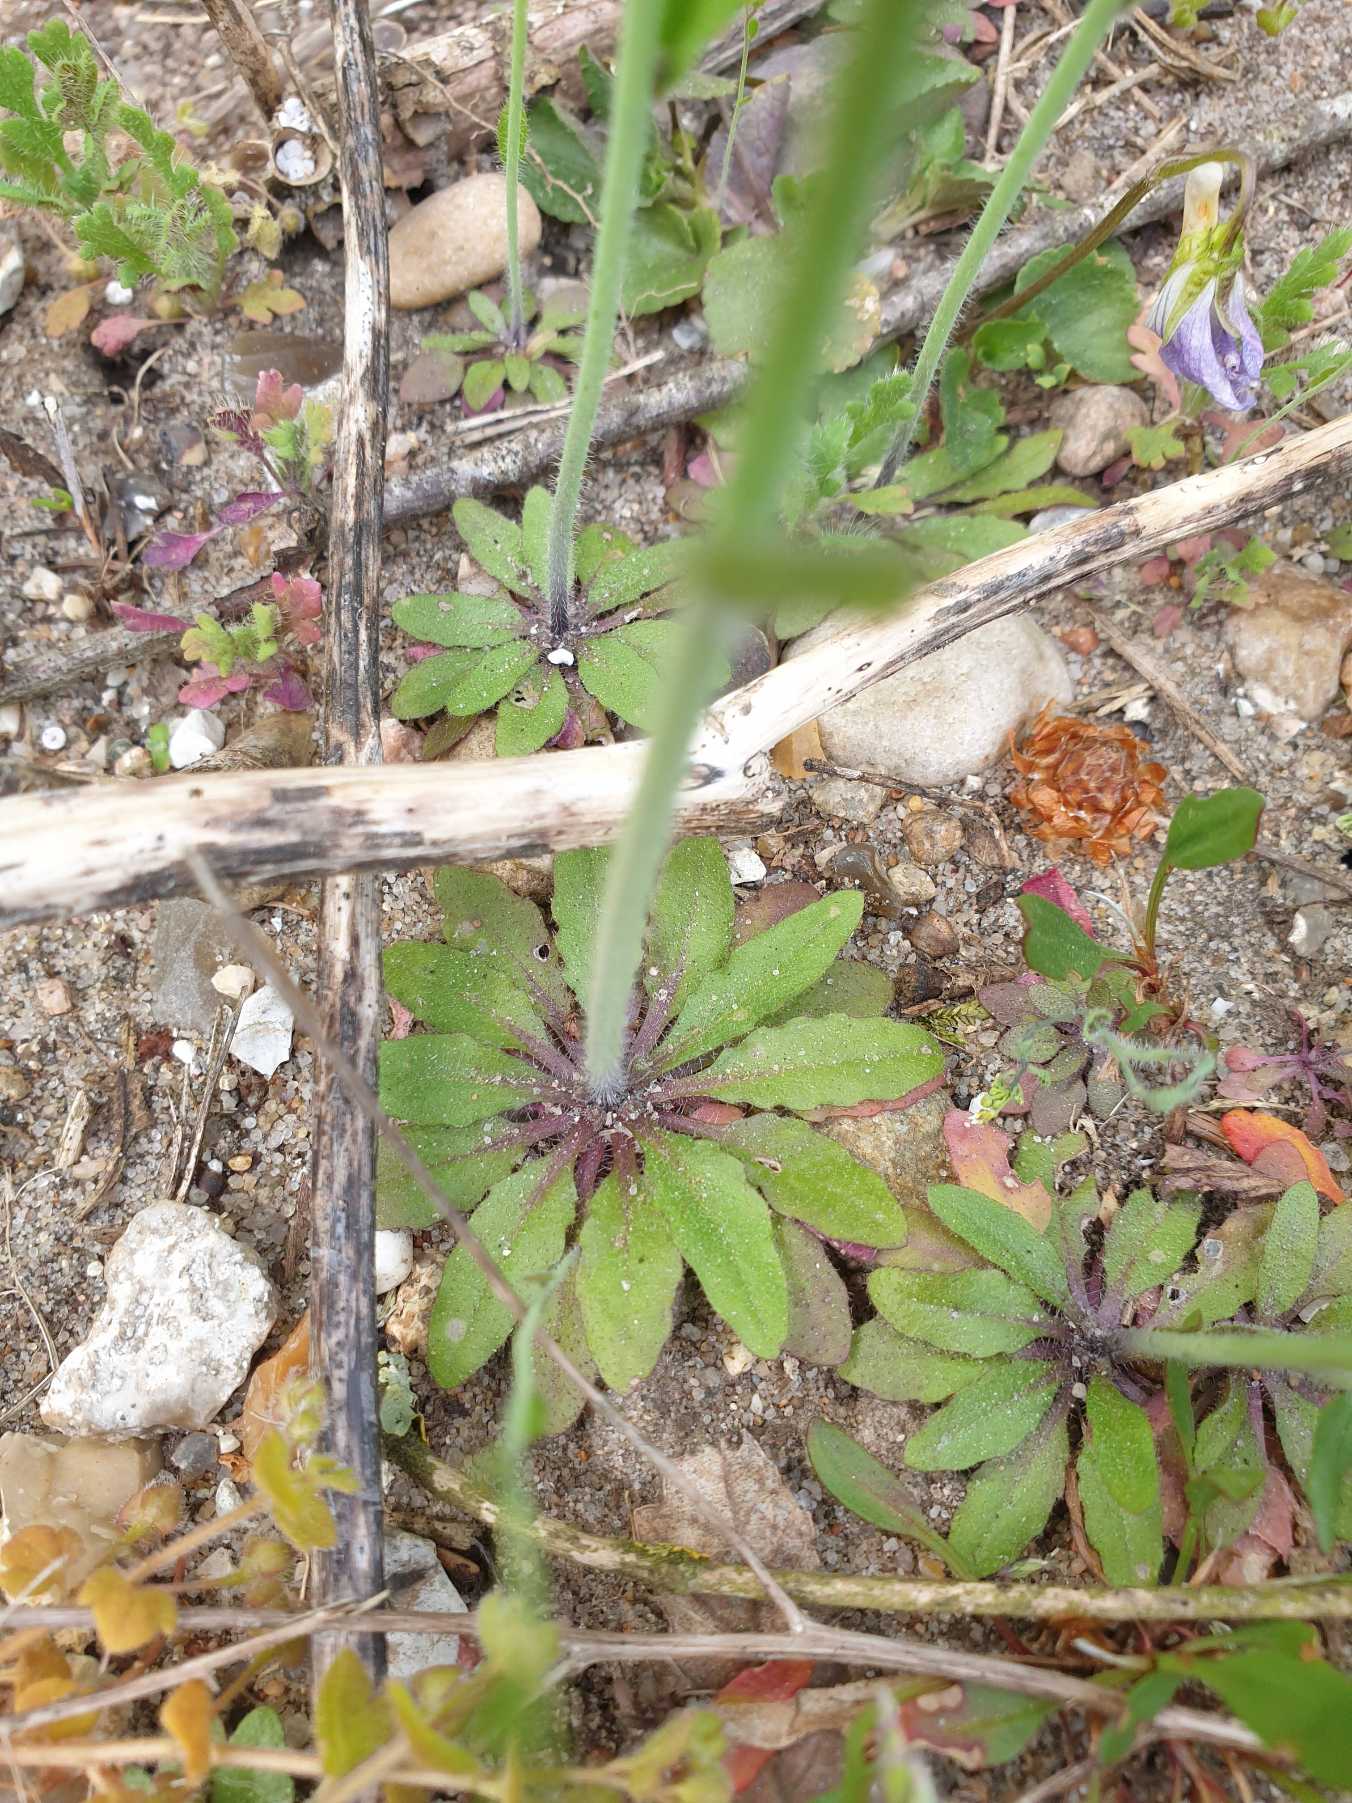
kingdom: Plantae
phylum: Tracheophyta
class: Magnoliopsida
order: Brassicales
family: Brassicaceae
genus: Arabidopsis
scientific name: Arabidopsis thaliana
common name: Almindelig gåsemad
